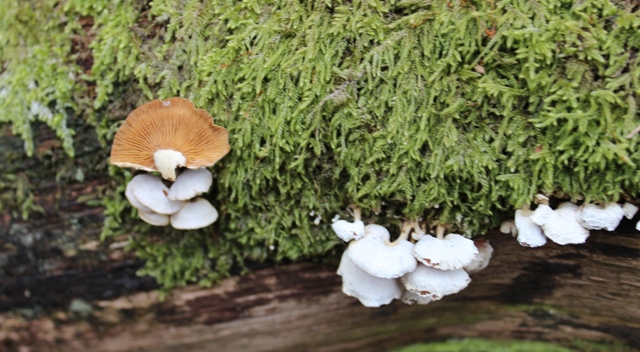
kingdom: Fungi
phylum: Basidiomycota
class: Agaricomycetes
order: Agaricales
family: Mycenaceae
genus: Panellus
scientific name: Panellus stipticus
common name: kliddet epaulethat
